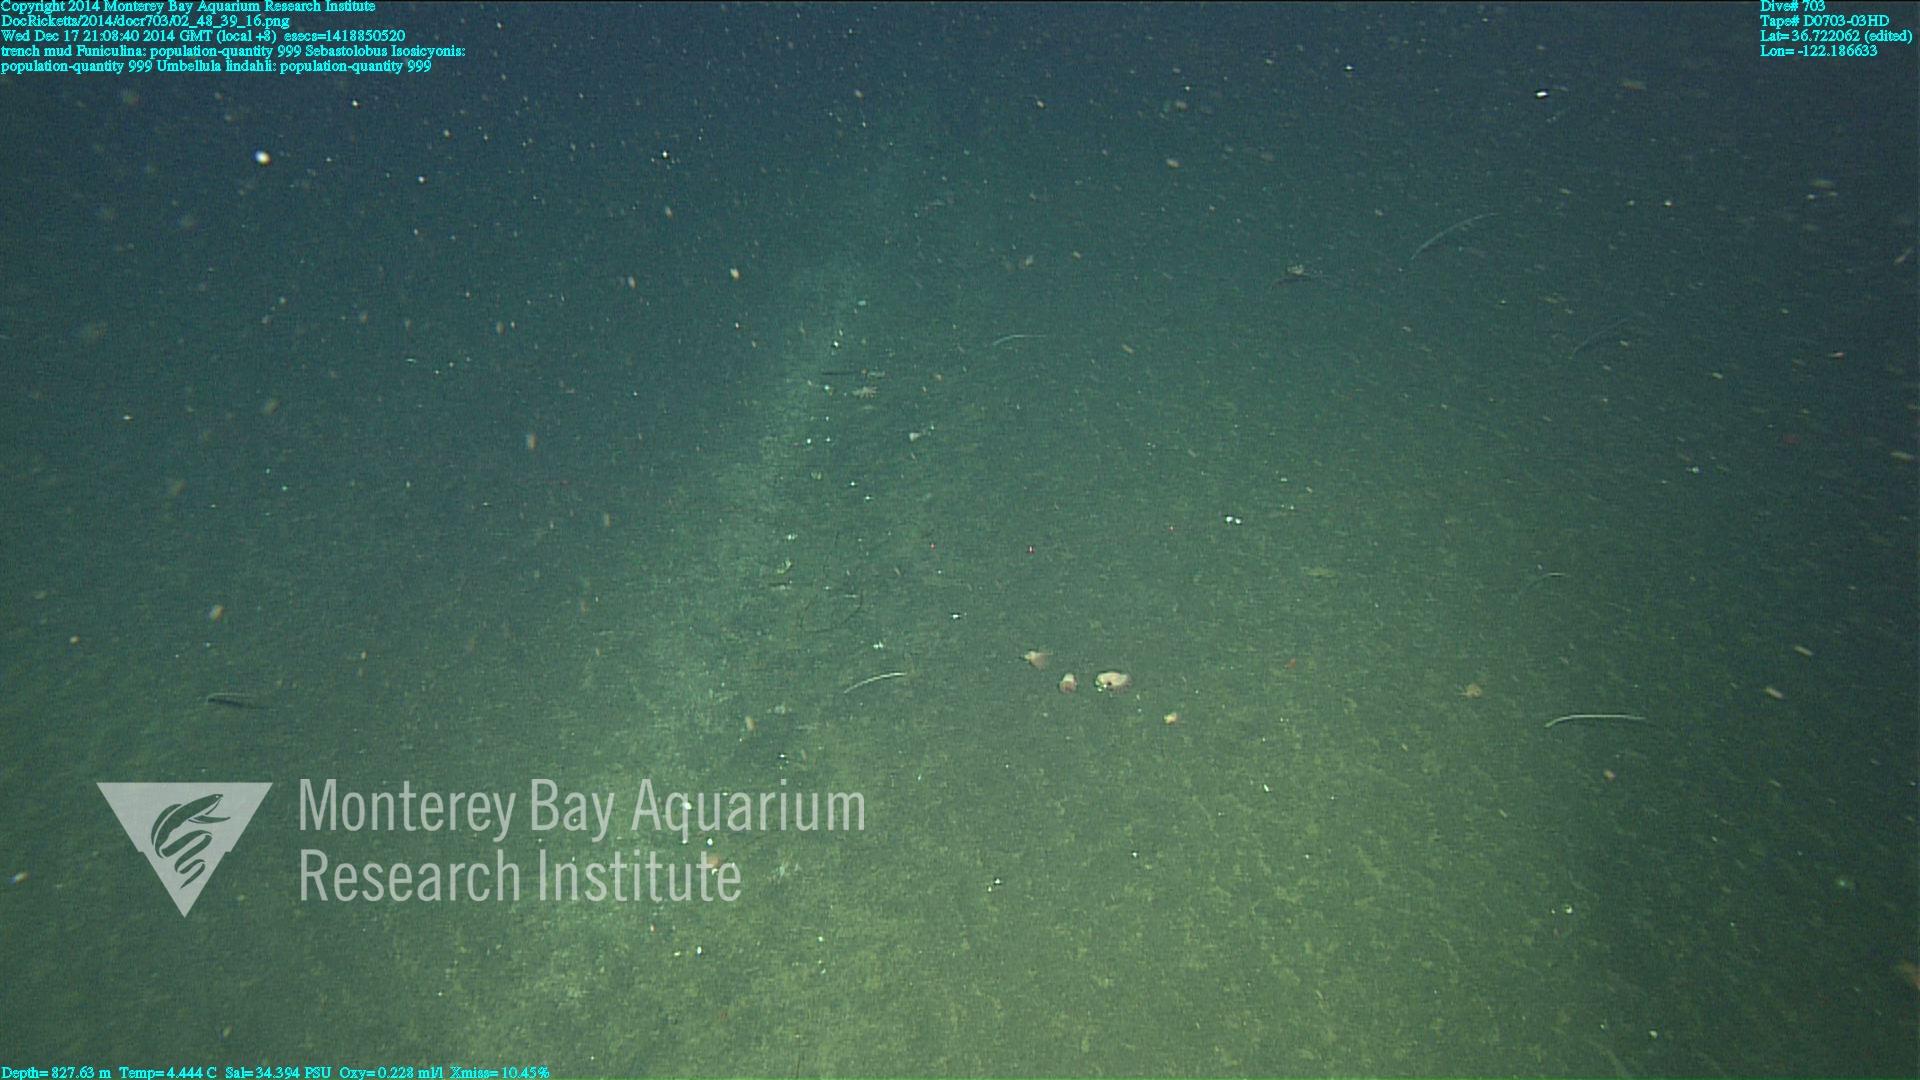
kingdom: Animalia
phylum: Cnidaria
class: Anthozoa
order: Scleralcyonacea
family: Umbellulidae
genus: Umbellula
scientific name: Umbellula lindahli
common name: Lindahl's droopy sea pen
